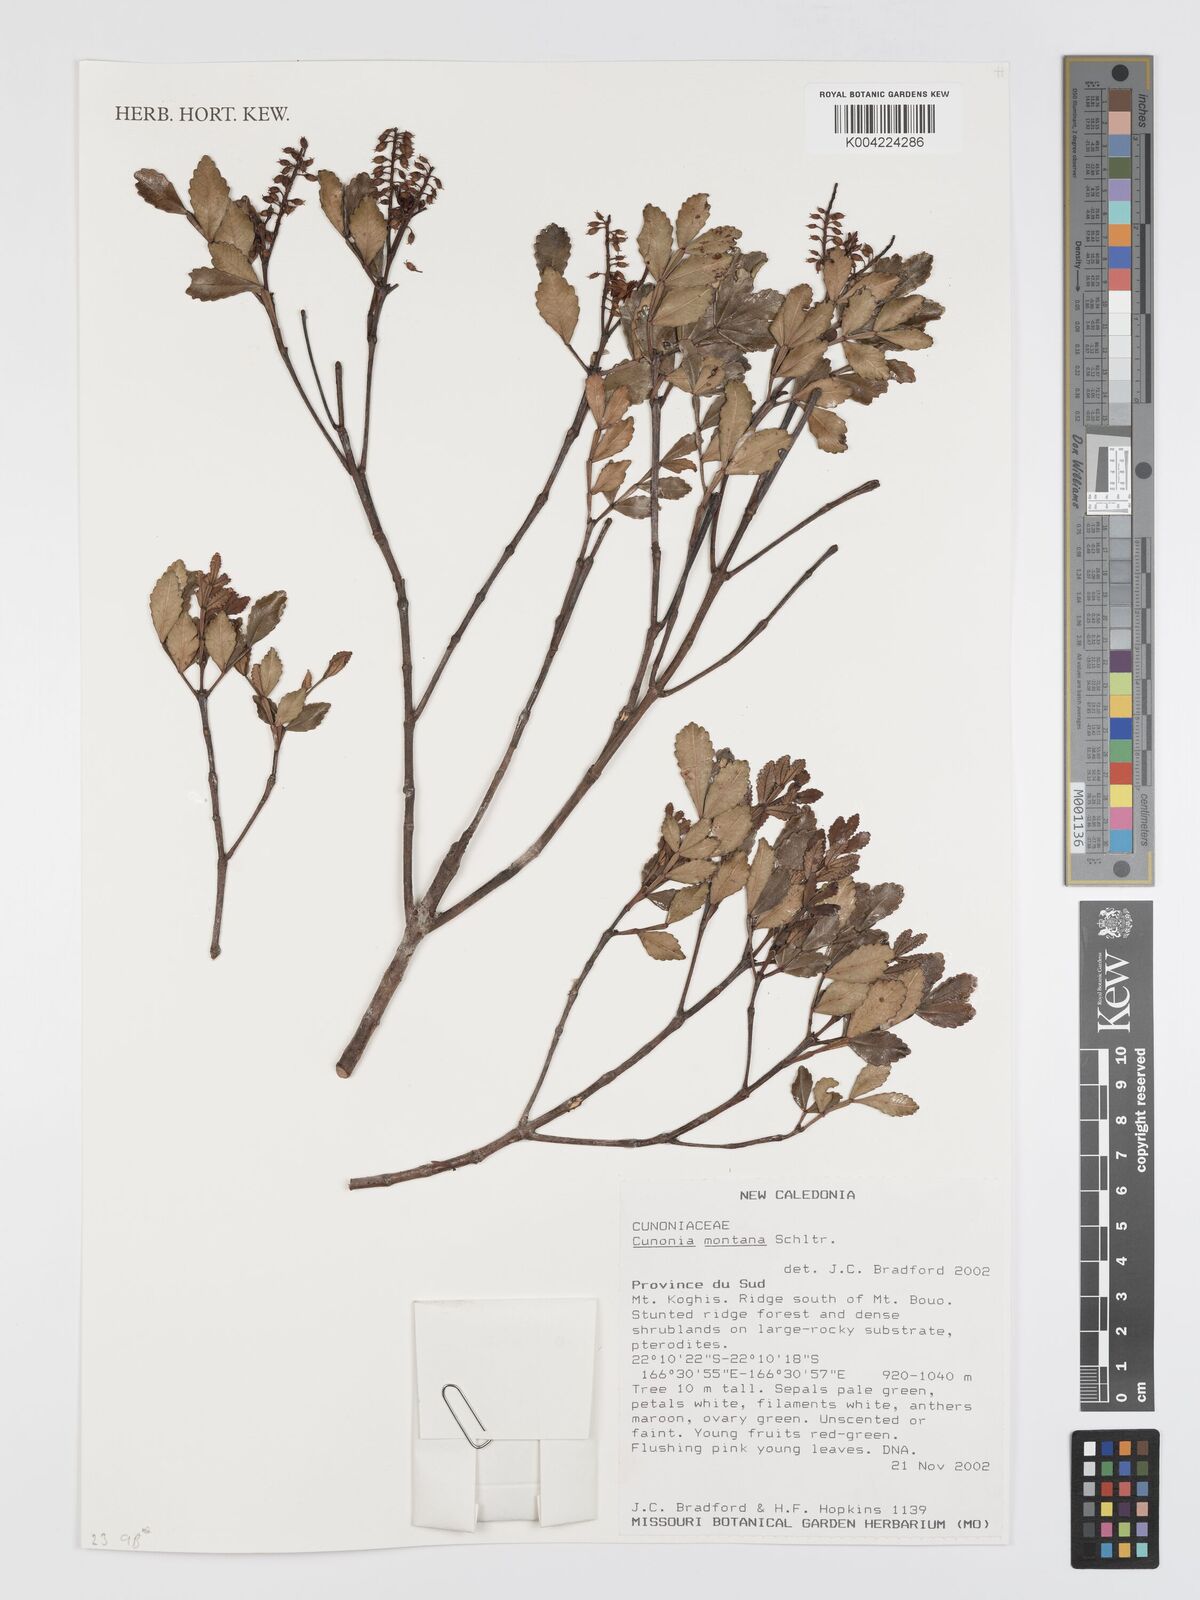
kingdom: Plantae
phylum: Tracheophyta
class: Magnoliopsida
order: Oxalidales
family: Cunoniaceae
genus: Cunonia
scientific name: Cunonia montana
